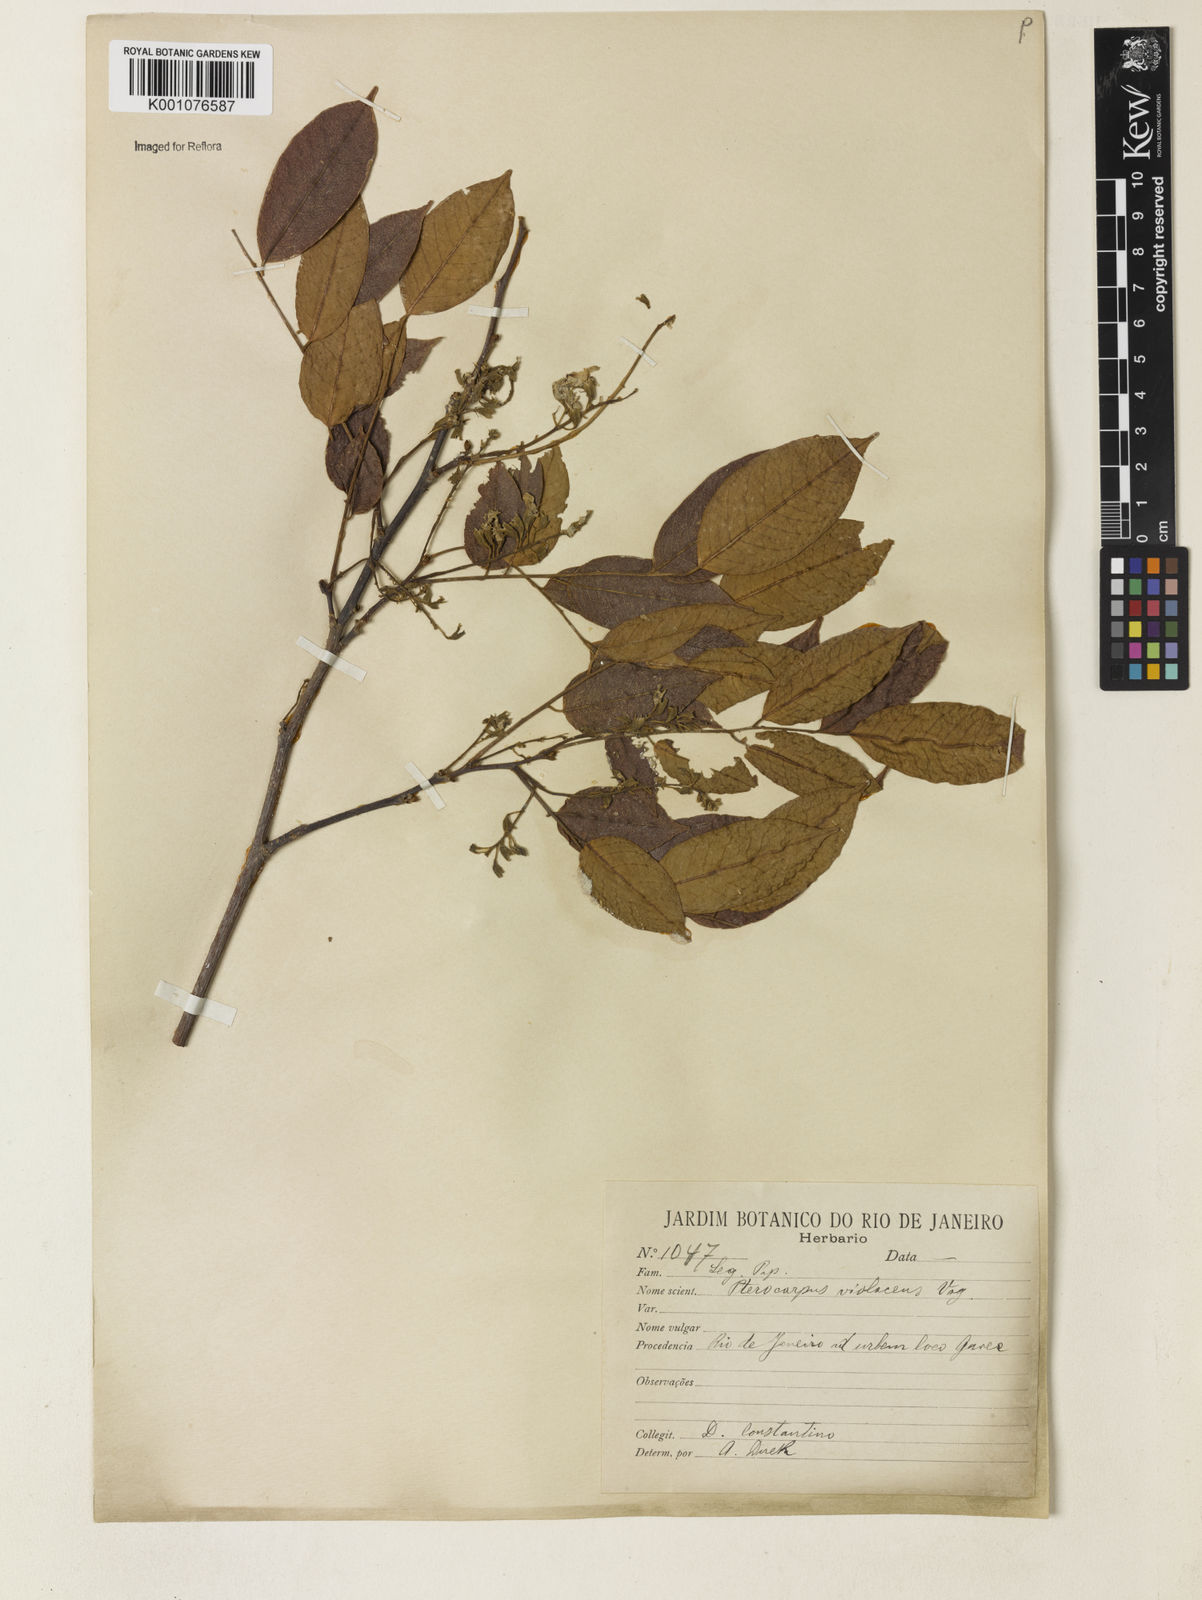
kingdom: Plantae
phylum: Tracheophyta
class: Magnoliopsida
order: Fabales
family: Fabaceae
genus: Pterocarpus
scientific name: Pterocarpus
